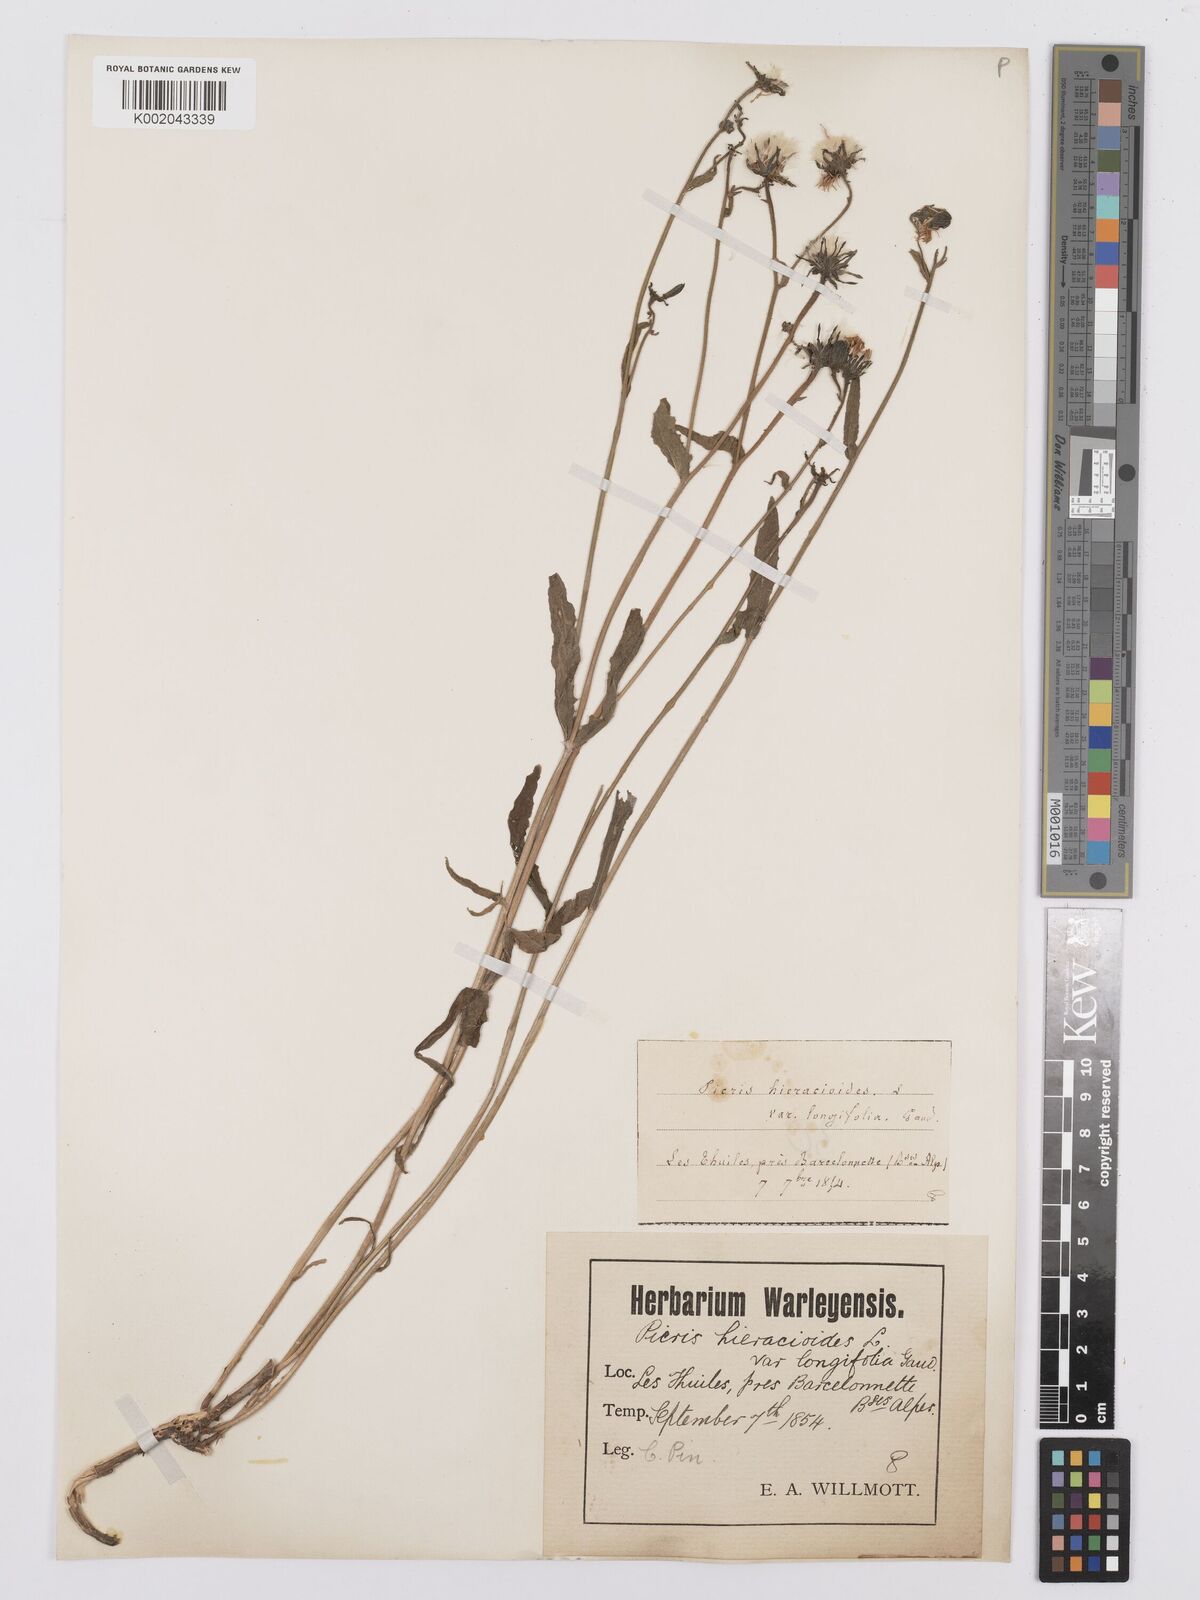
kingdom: Plantae
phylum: Tracheophyta
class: Magnoliopsida
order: Asterales
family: Asteraceae
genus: Picris
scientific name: Picris hieracioides
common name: Hawkweed oxtongue
